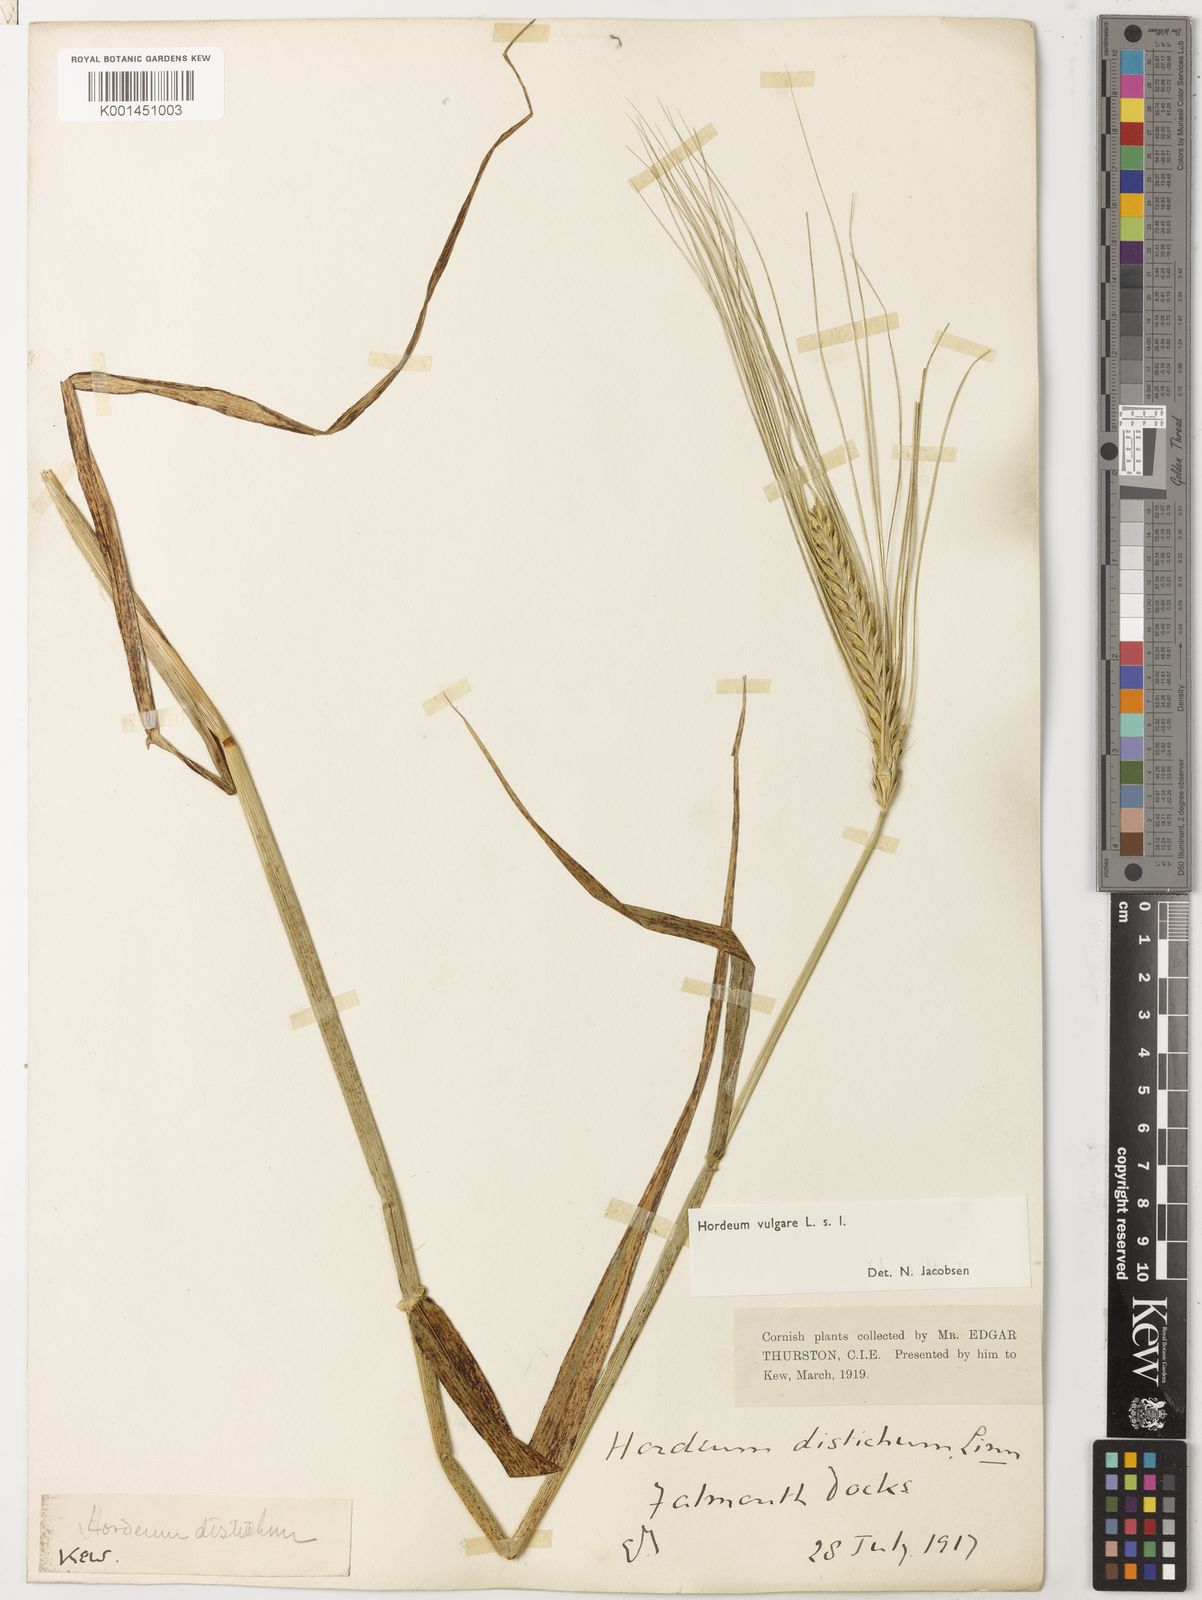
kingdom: Plantae
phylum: Tracheophyta
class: Liliopsida
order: Poales
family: Poaceae
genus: Hordeum
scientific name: Hordeum vulgare
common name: Common barley
